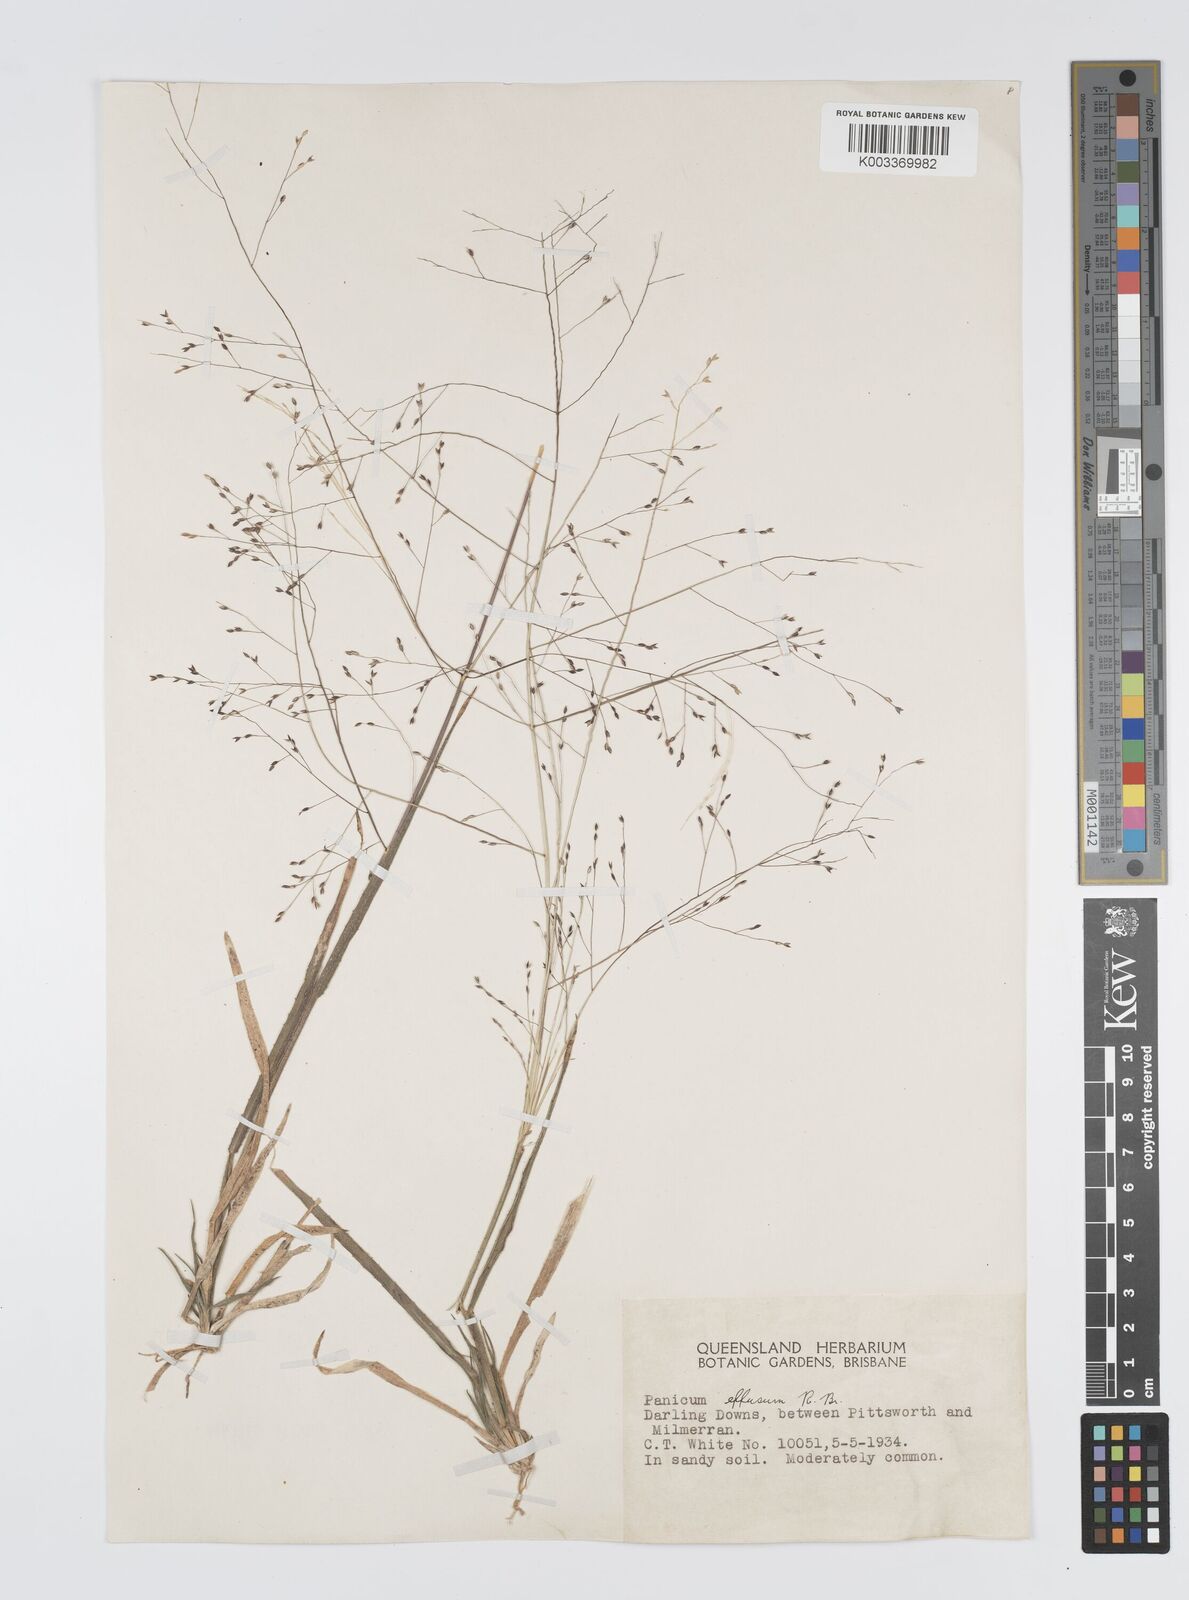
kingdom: Plantae
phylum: Tracheophyta
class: Liliopsida
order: Poales
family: Poaceae
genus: Panicum
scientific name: Panicum effusum
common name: Hairy panic grass
